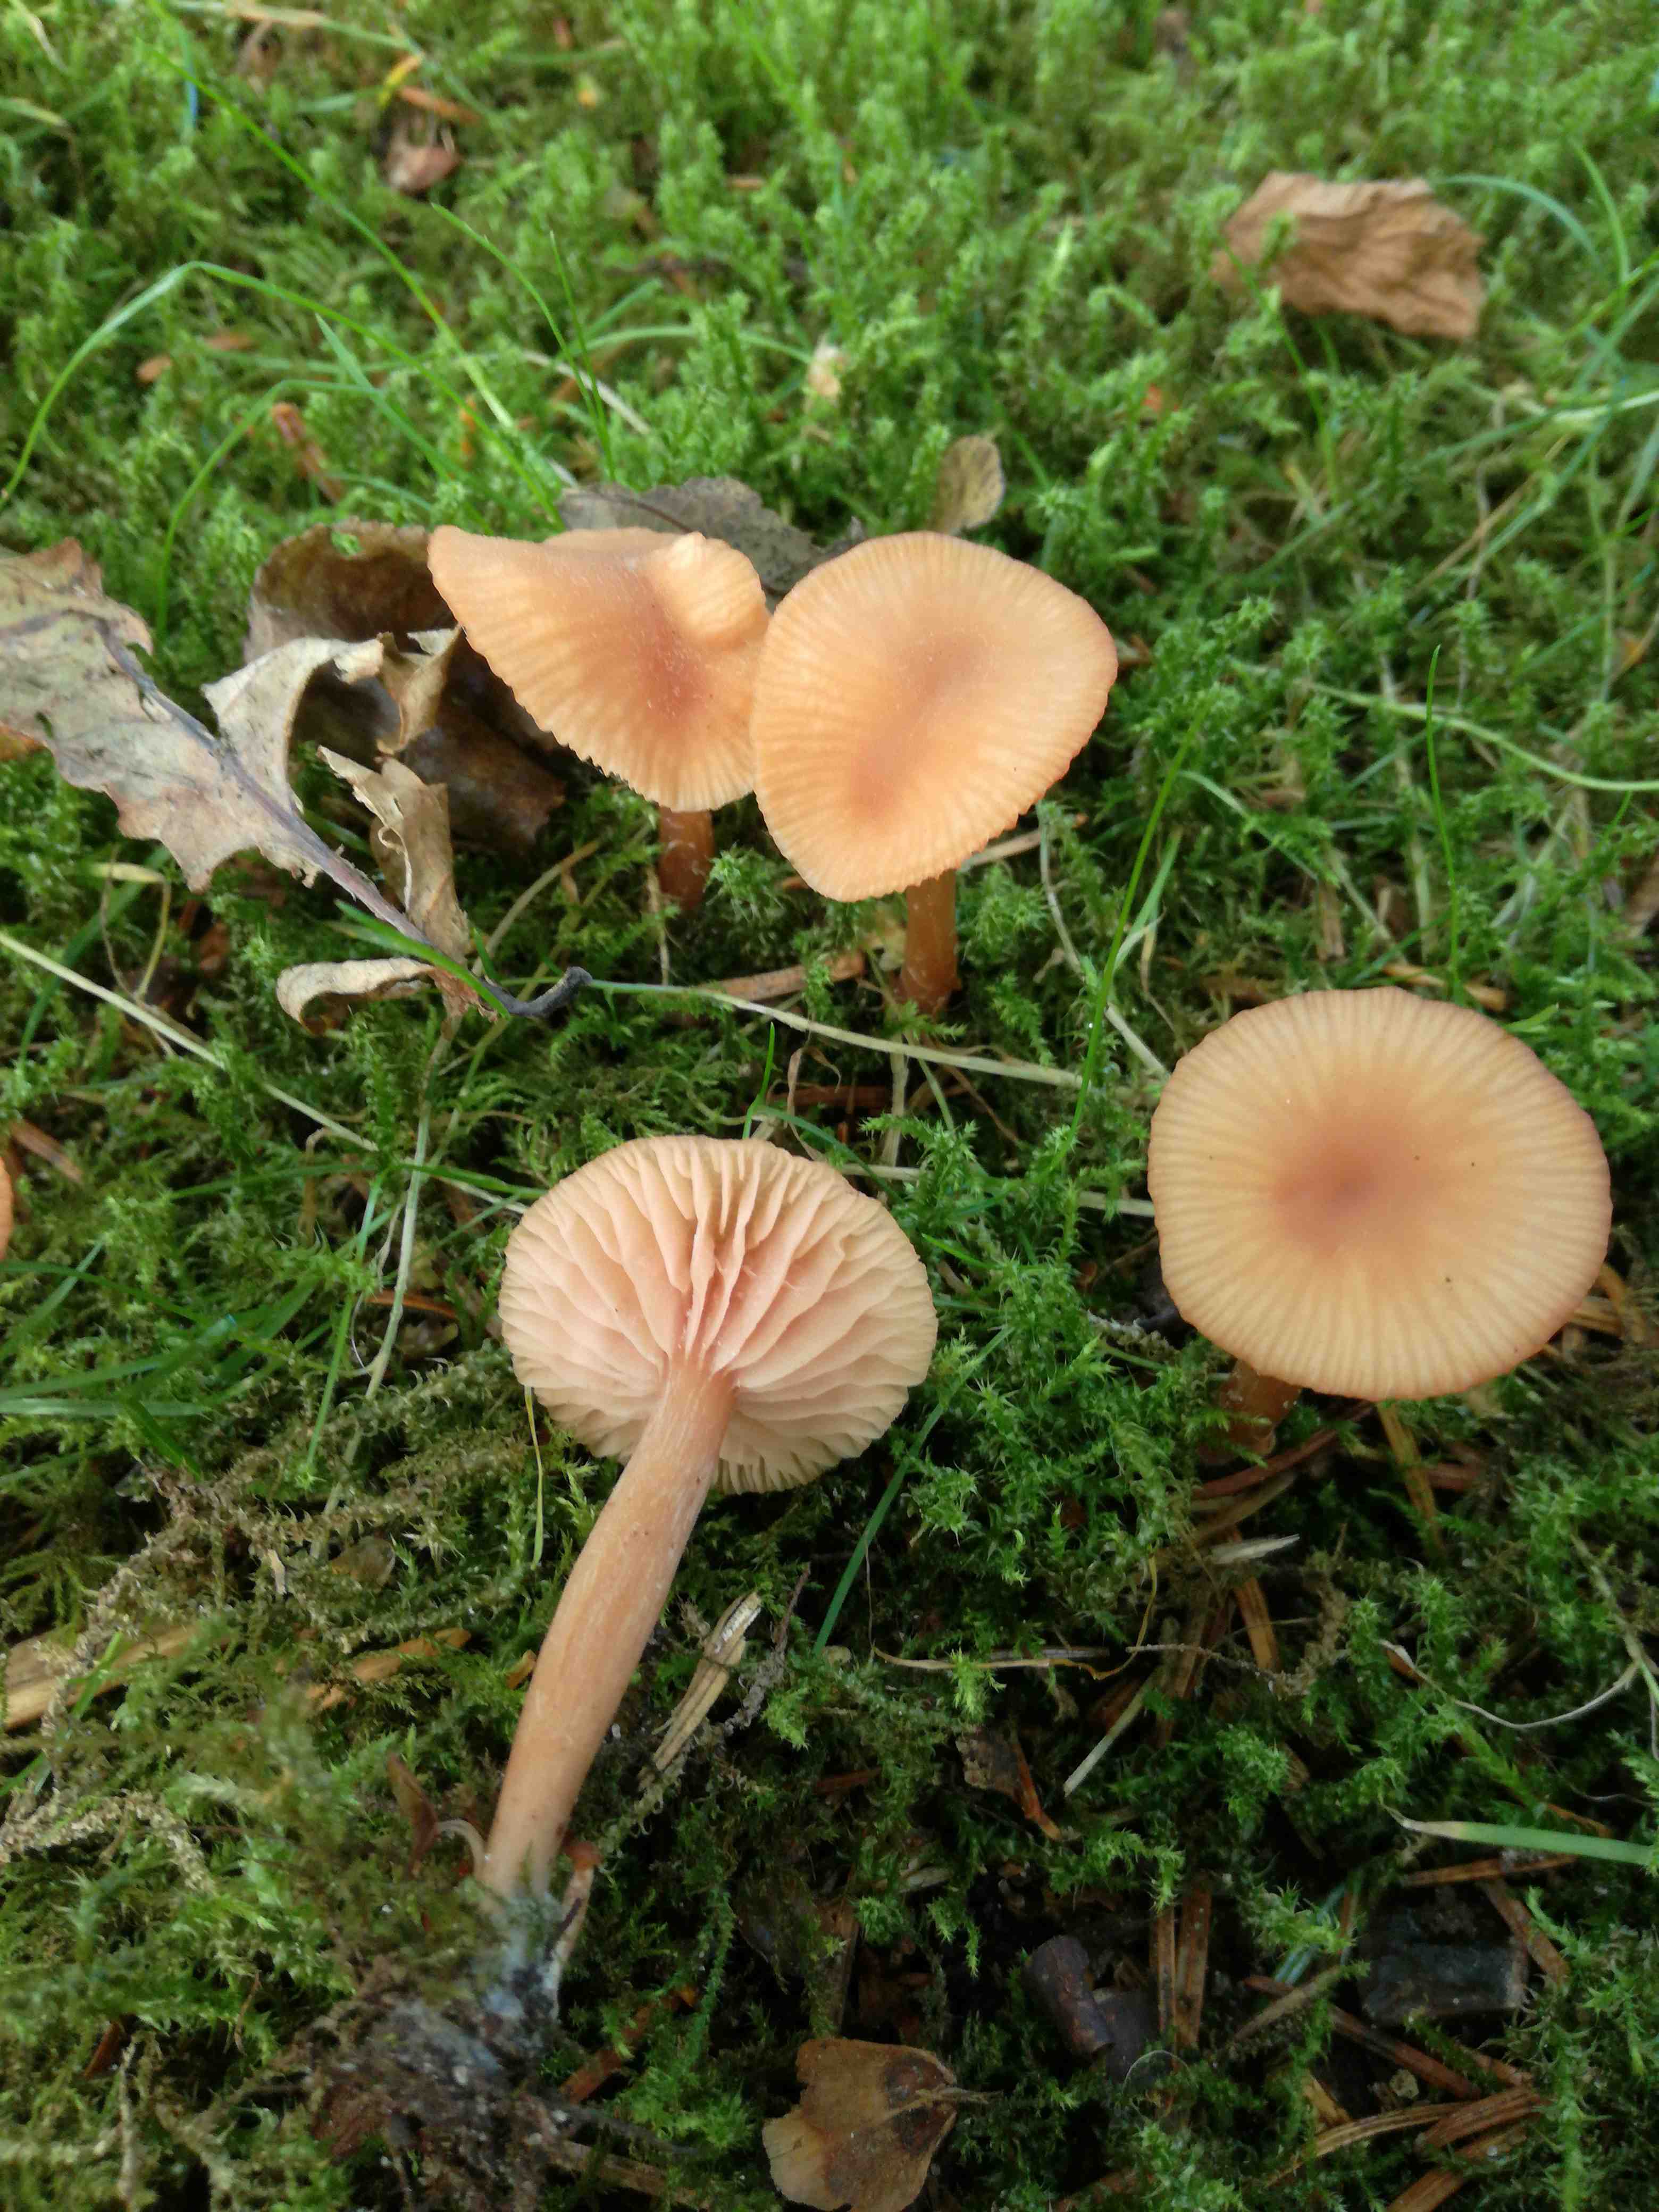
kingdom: Fungi
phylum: Basidiomycota
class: Agaricomycetes
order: Agaricales
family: Hydnangiaceae
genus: Laccaria
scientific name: Laccaria laccata
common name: rød ametysthat
